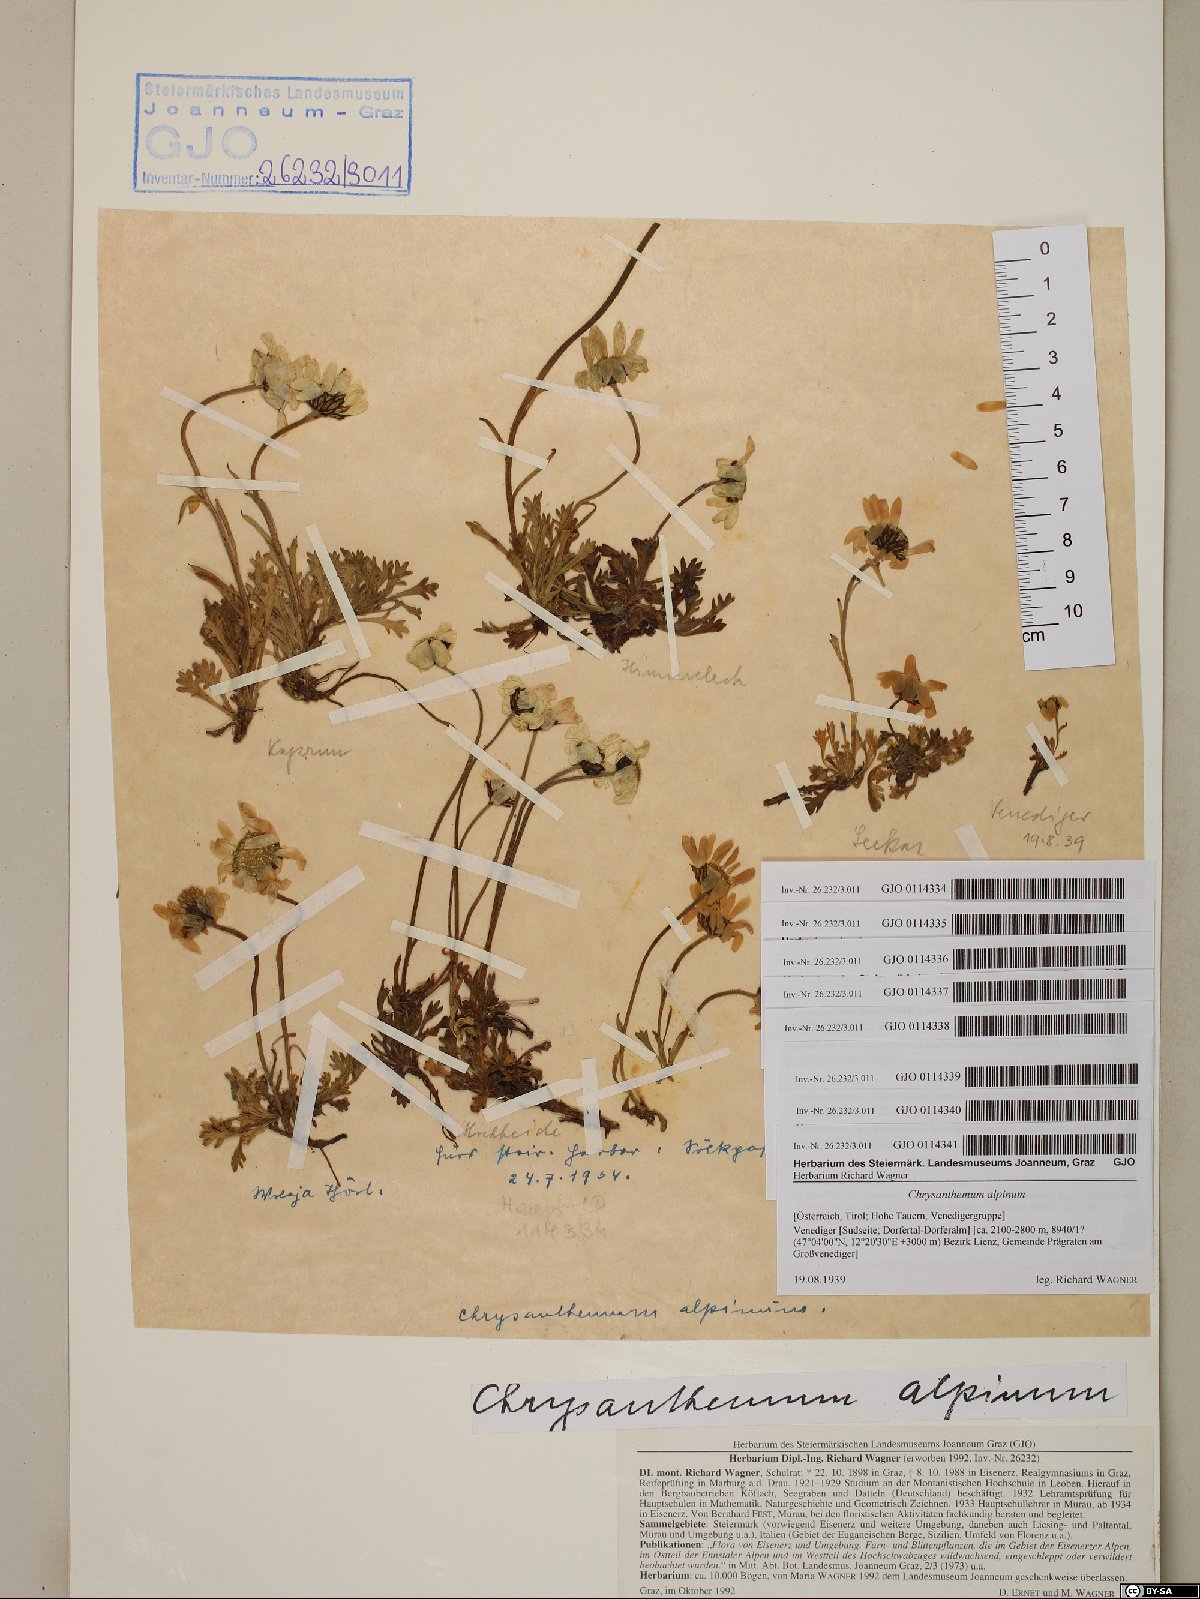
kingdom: Plantae
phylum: Tracheophyta
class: Magnoliopsida
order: Asterales
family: Asteraceae
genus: Leucanthemopsis
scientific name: Leucanthemopsis alpina
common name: Alpine moon daisy
